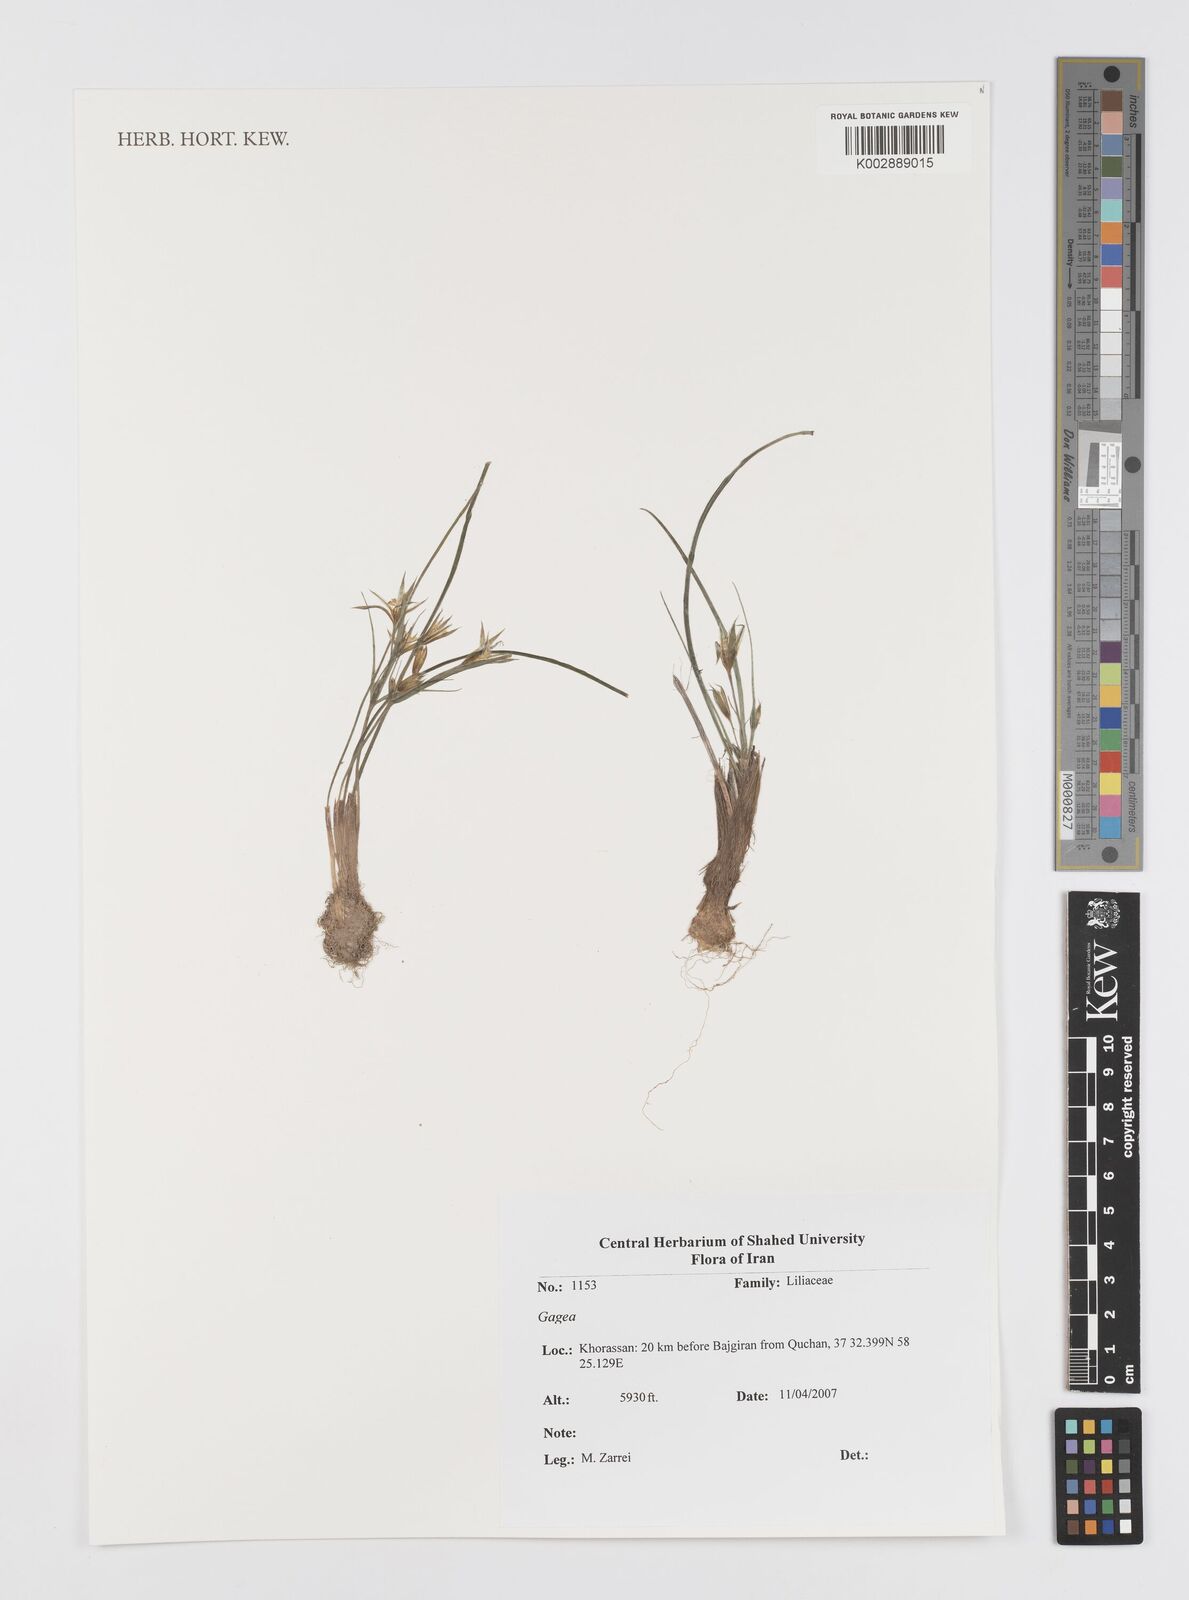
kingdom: Plantae
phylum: Tracheophyta
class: Liliopsida
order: Liliales
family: Liliaceae
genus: Gagea
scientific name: Gagea
